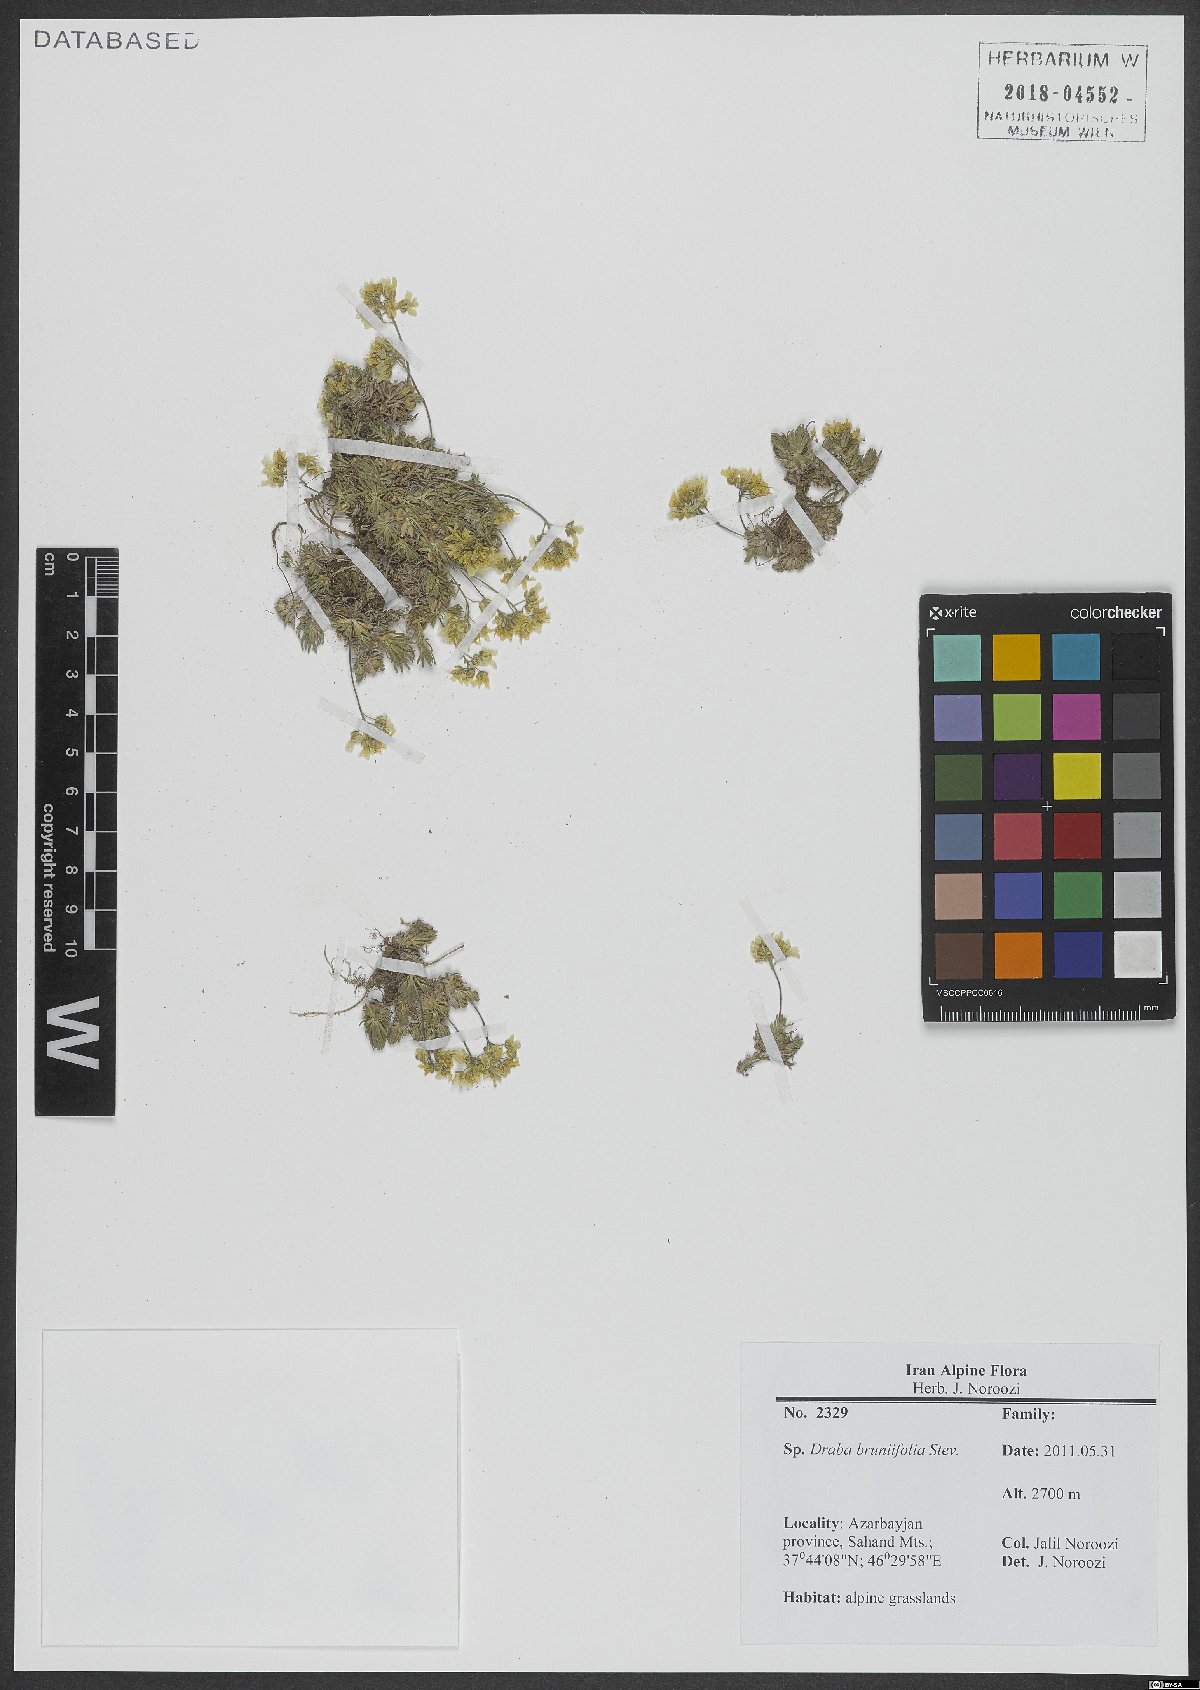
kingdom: Plantae
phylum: Tracheophyta
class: Magnoliopsida
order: Brassicales
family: Brassicaceae
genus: Draba
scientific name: Draba bruniifolia
